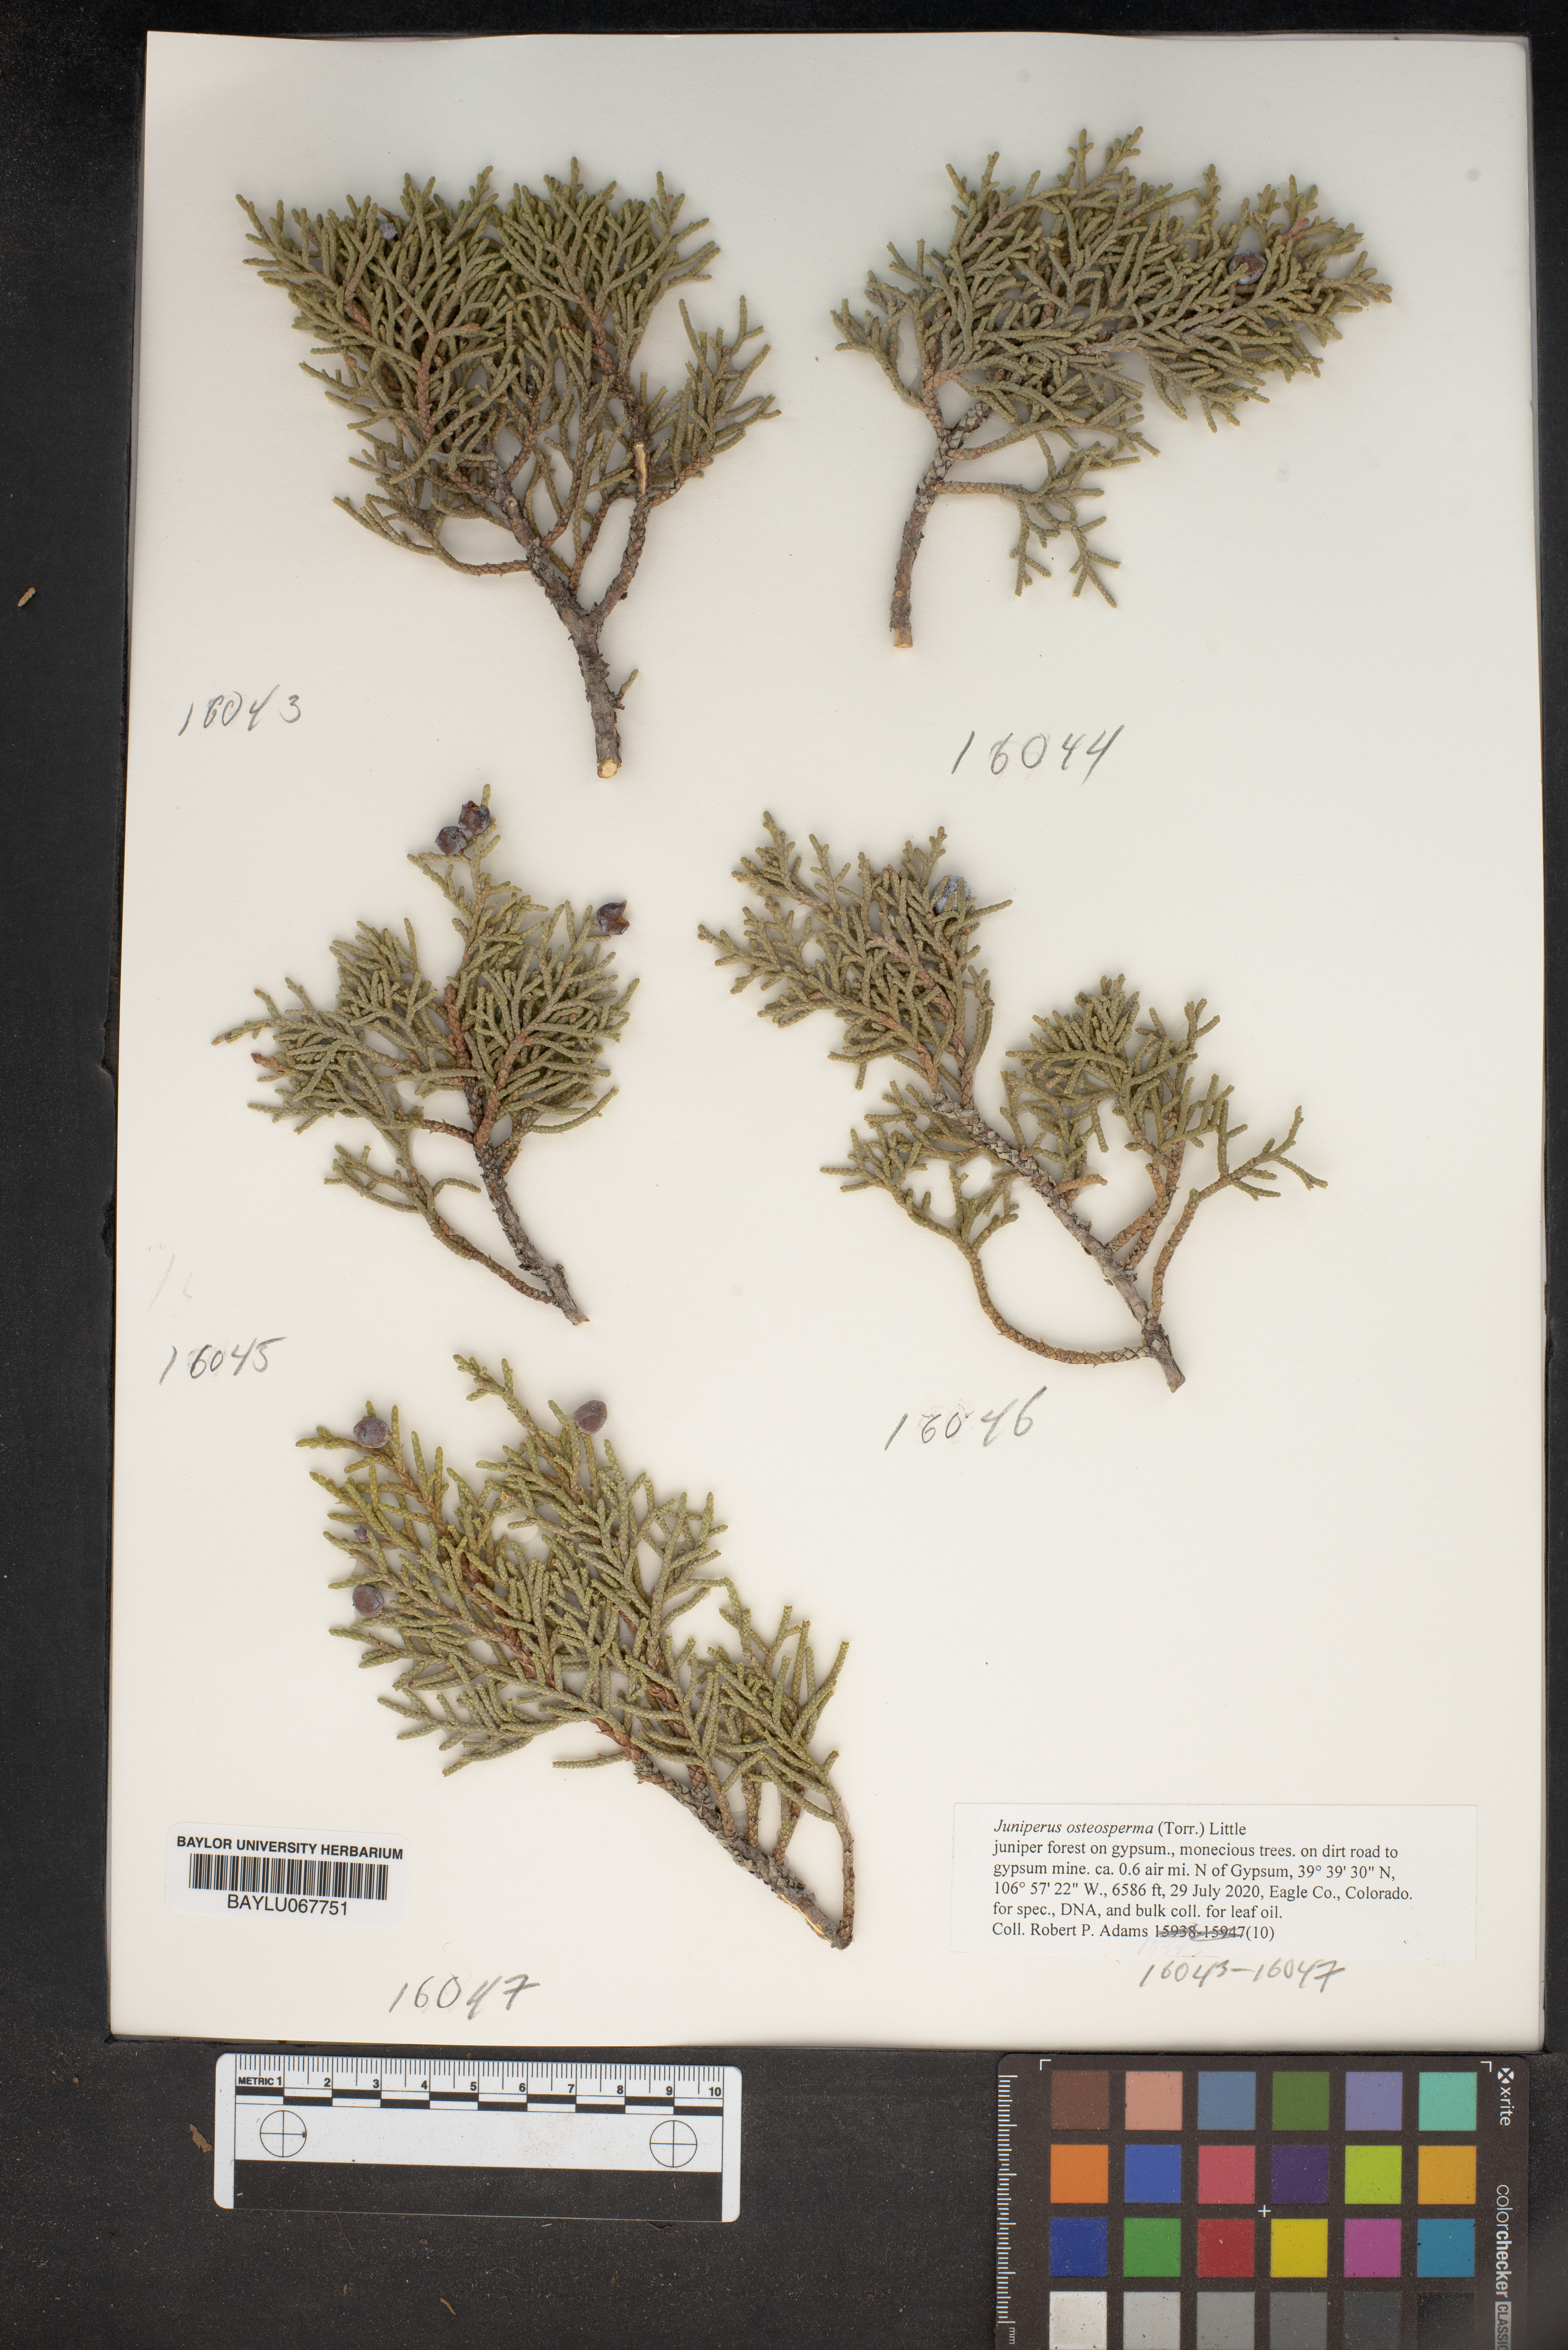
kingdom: Plantae
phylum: Tracheophyta
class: Pinopsida
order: Pinales
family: Cupressaceae
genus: Juniperus
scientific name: Juniperus osteosperma
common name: Utah juniper
